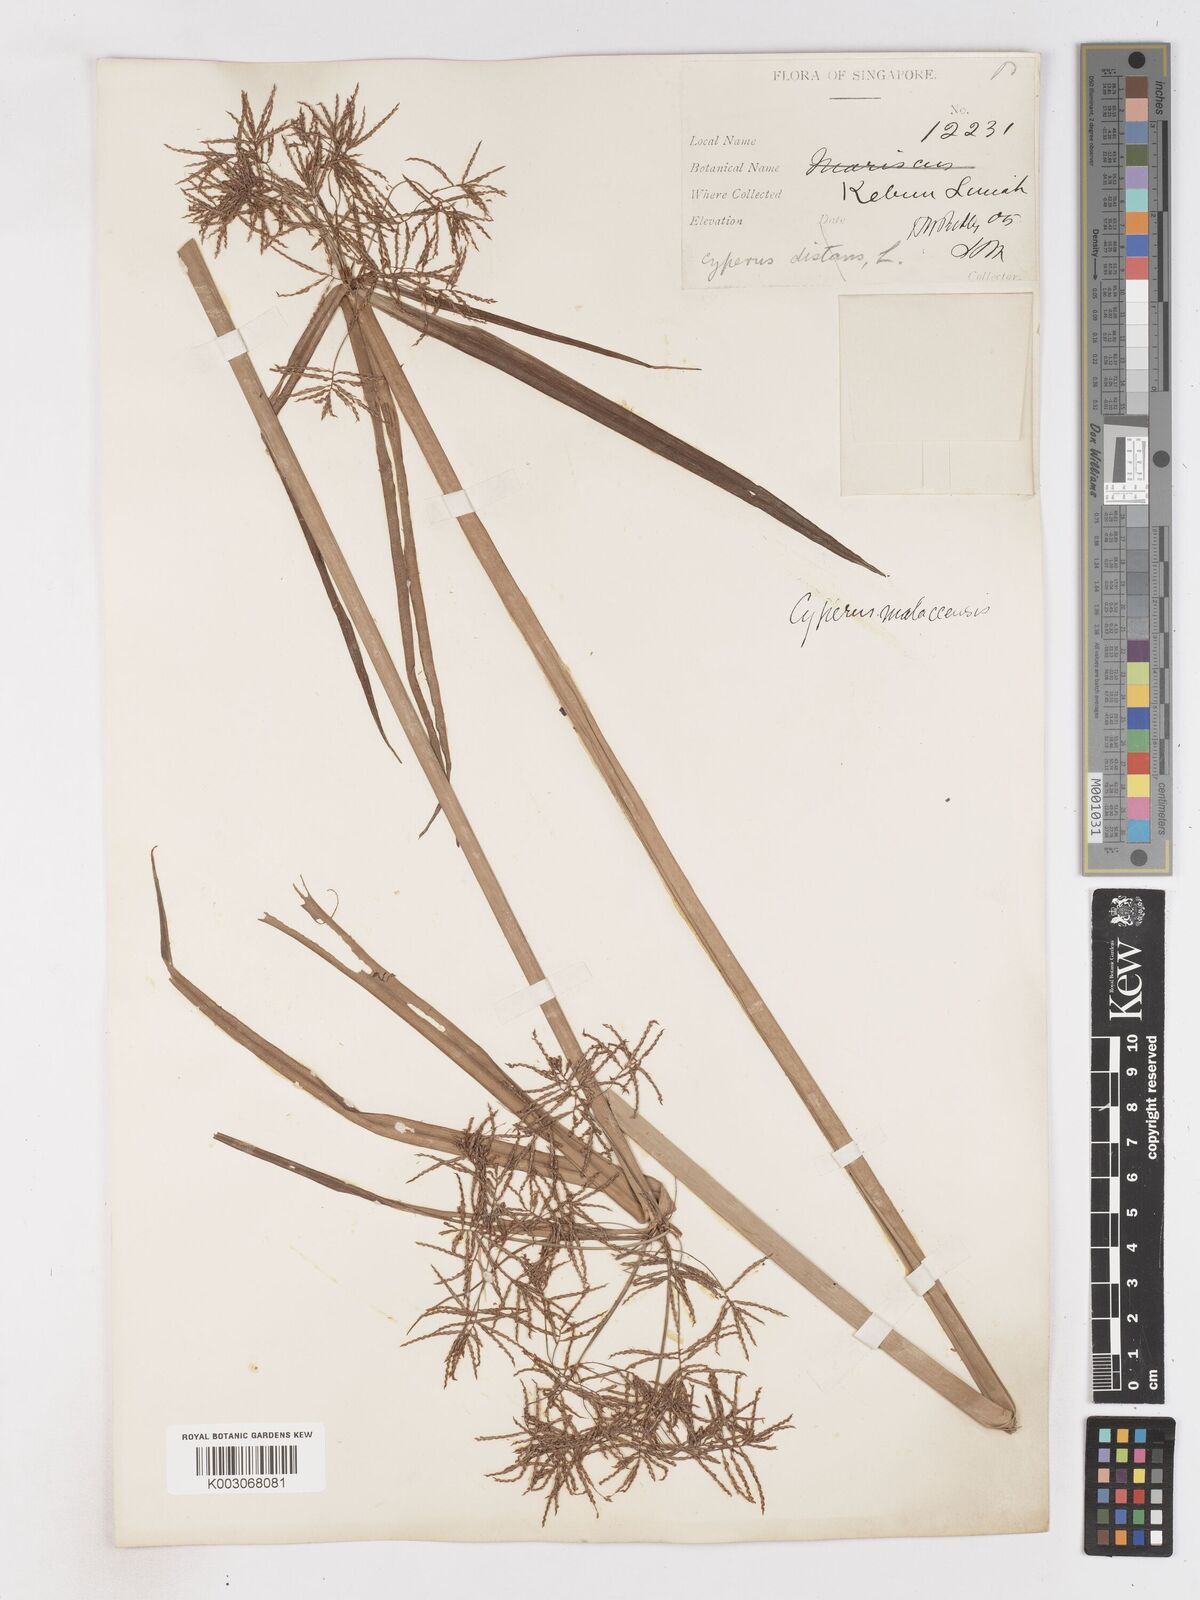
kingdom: Plantae
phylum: Tracheophyta
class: Liliopsida
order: Poales
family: Cyperaceae
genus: Cyperus
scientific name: Cyperus malaccensis
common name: Shichito matgrass
